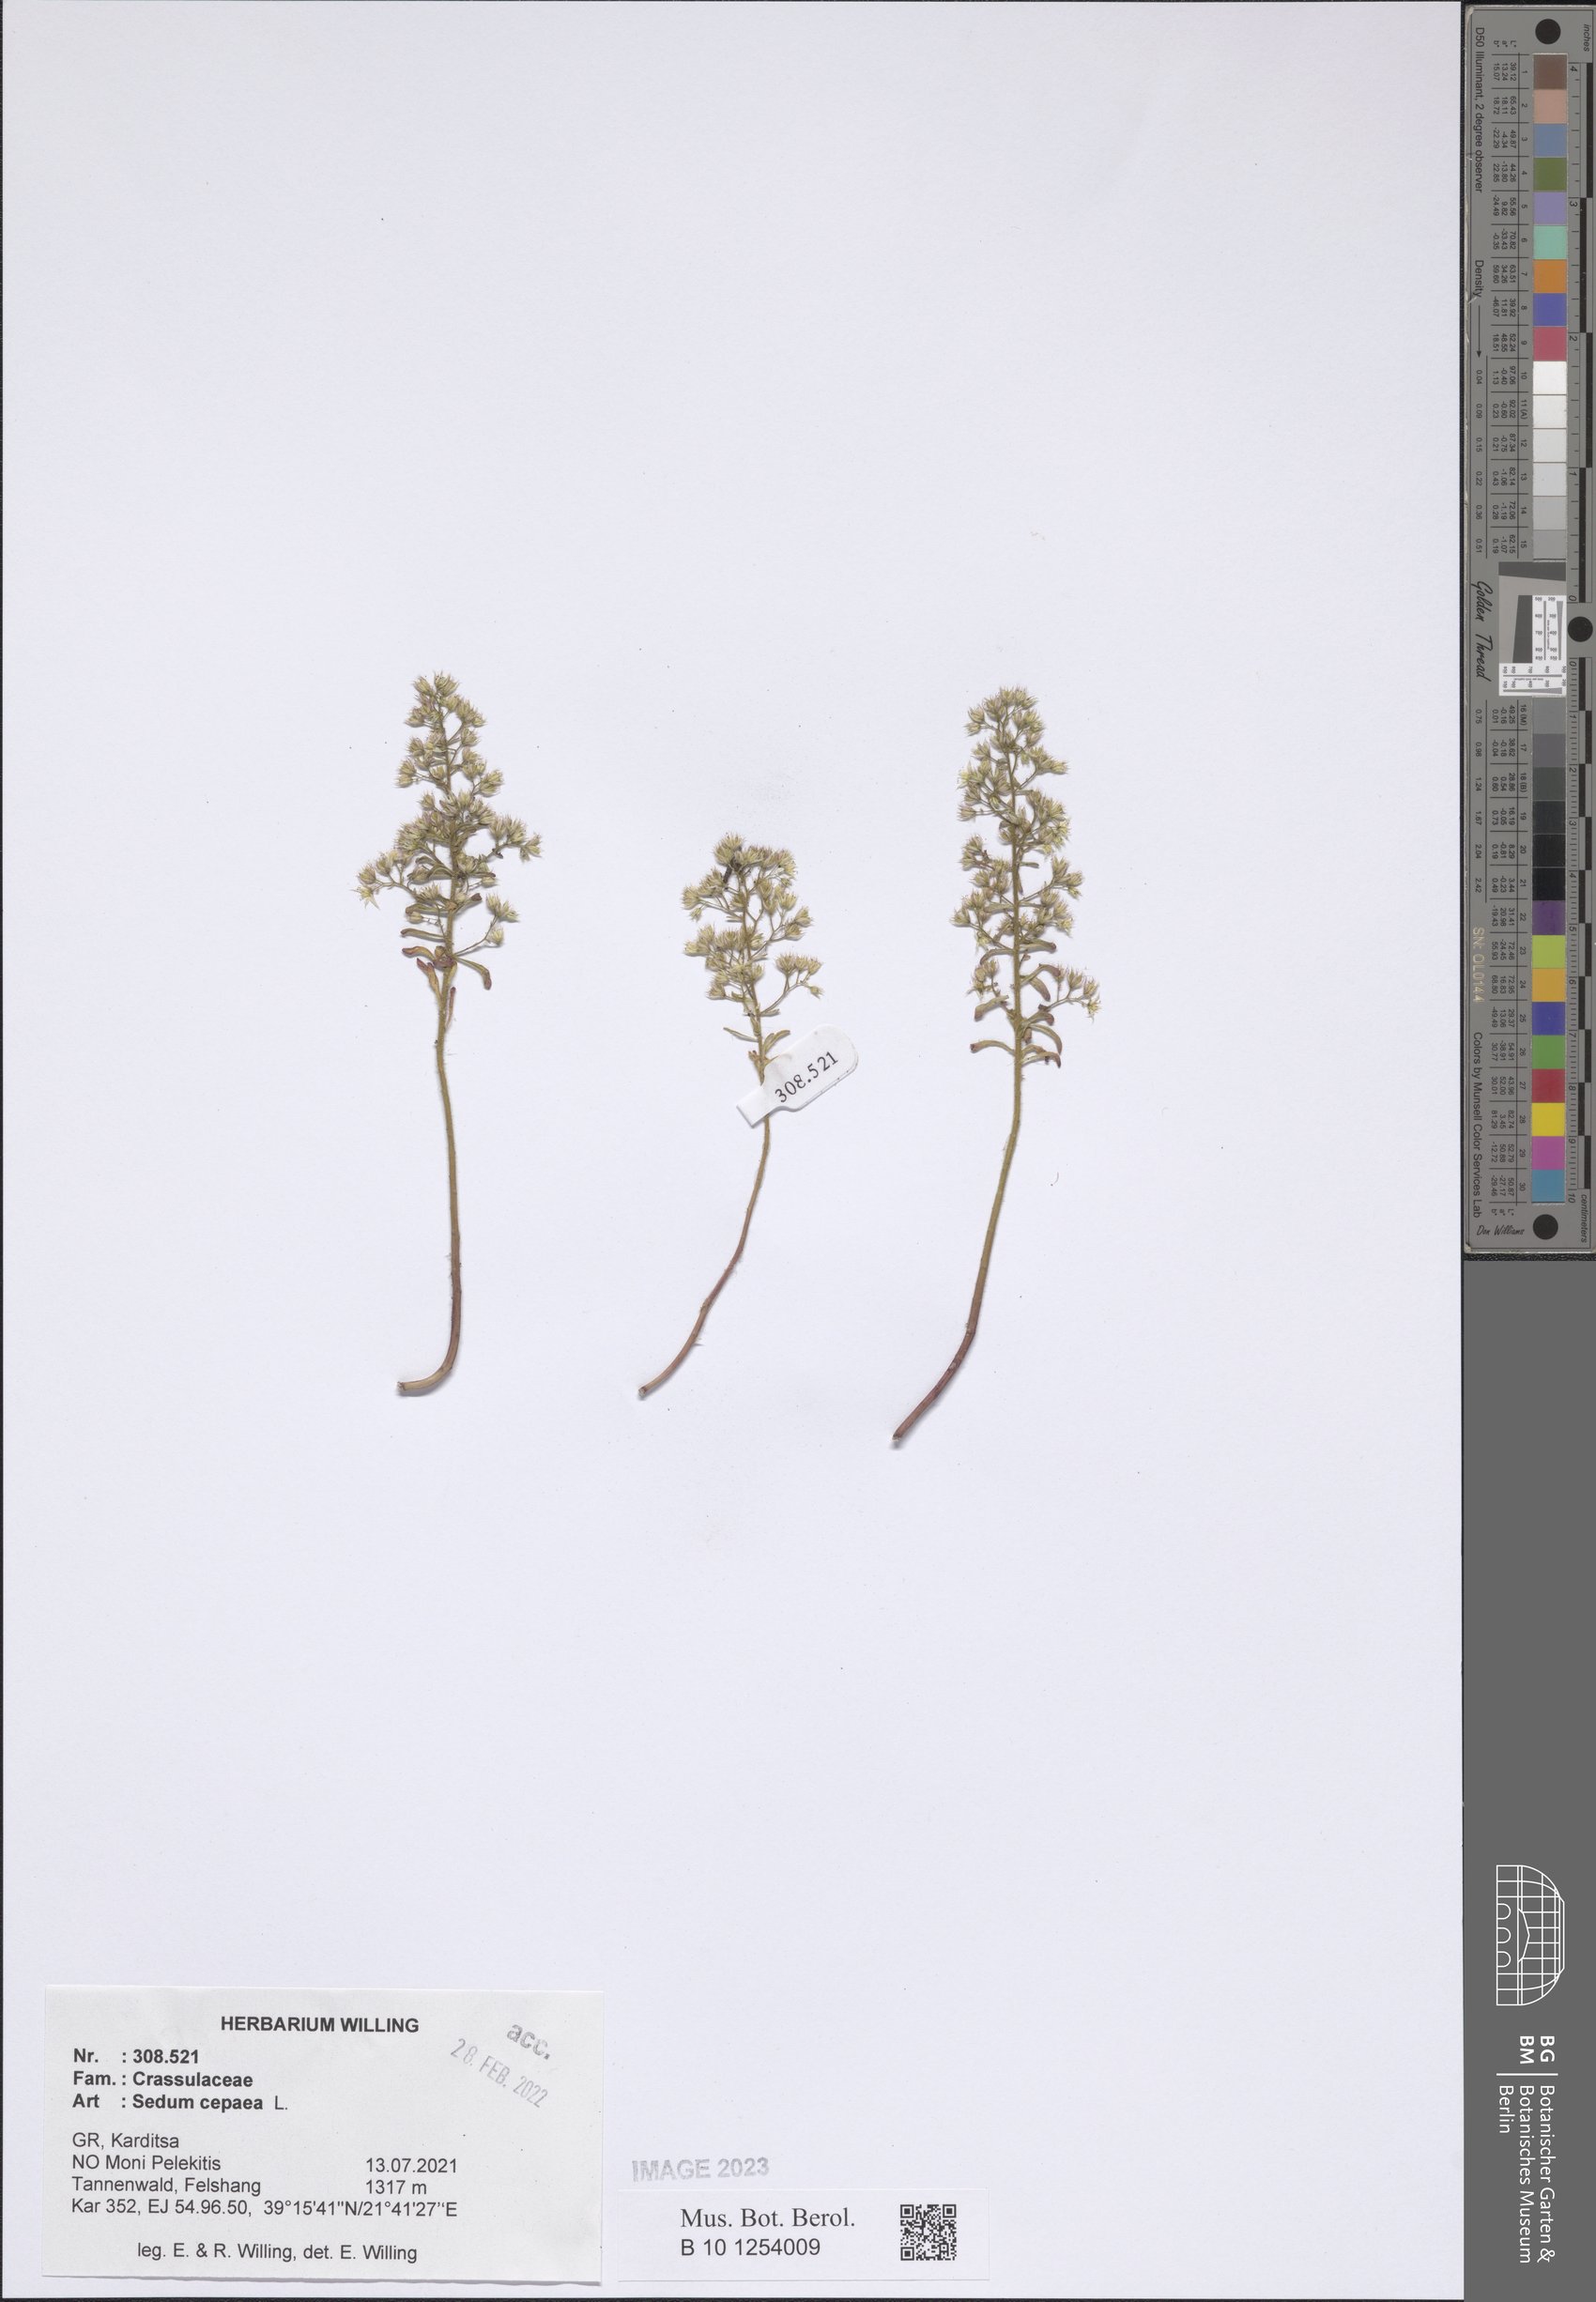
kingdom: Plantae
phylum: Tracheophyta
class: Magnoliopsida
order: Saxifragales
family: Crassulaceae
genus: Sedum
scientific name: Sedum cepaea
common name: Pink stonecrop
